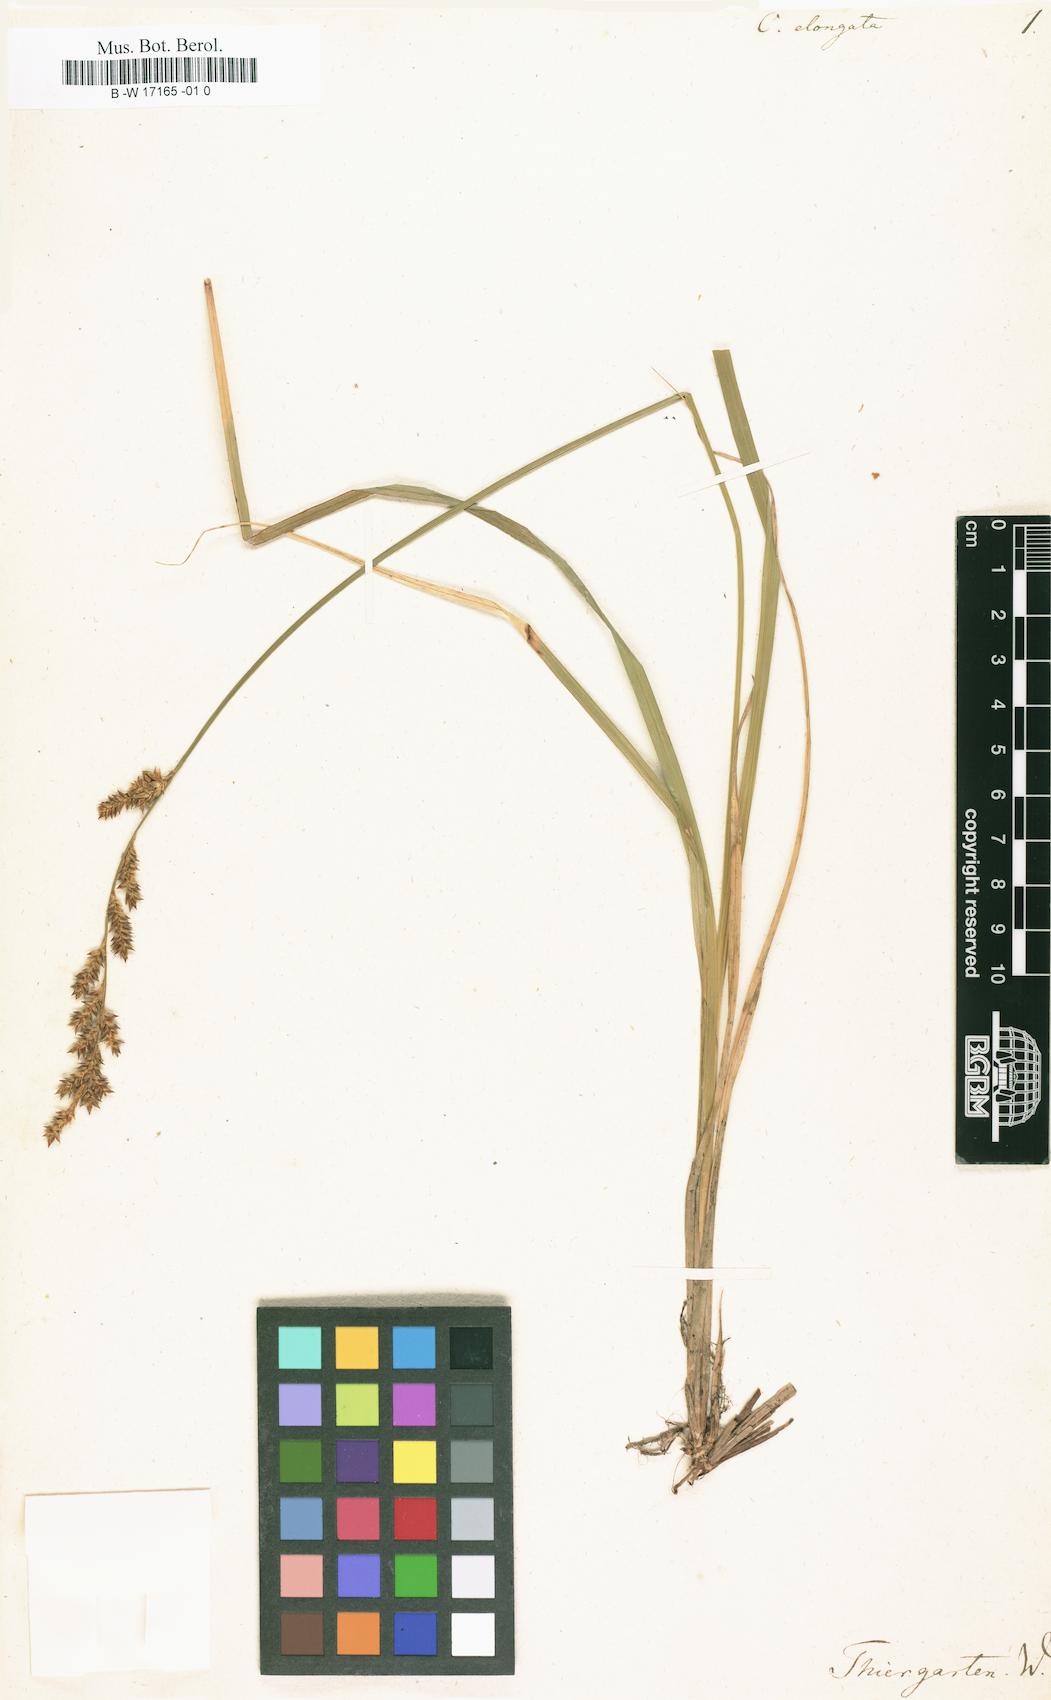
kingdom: Plantae
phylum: Tracheophyta
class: Liliopsida
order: Poales
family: Cyperaceae
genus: Carex
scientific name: Carex elongata
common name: Elongated sedge
